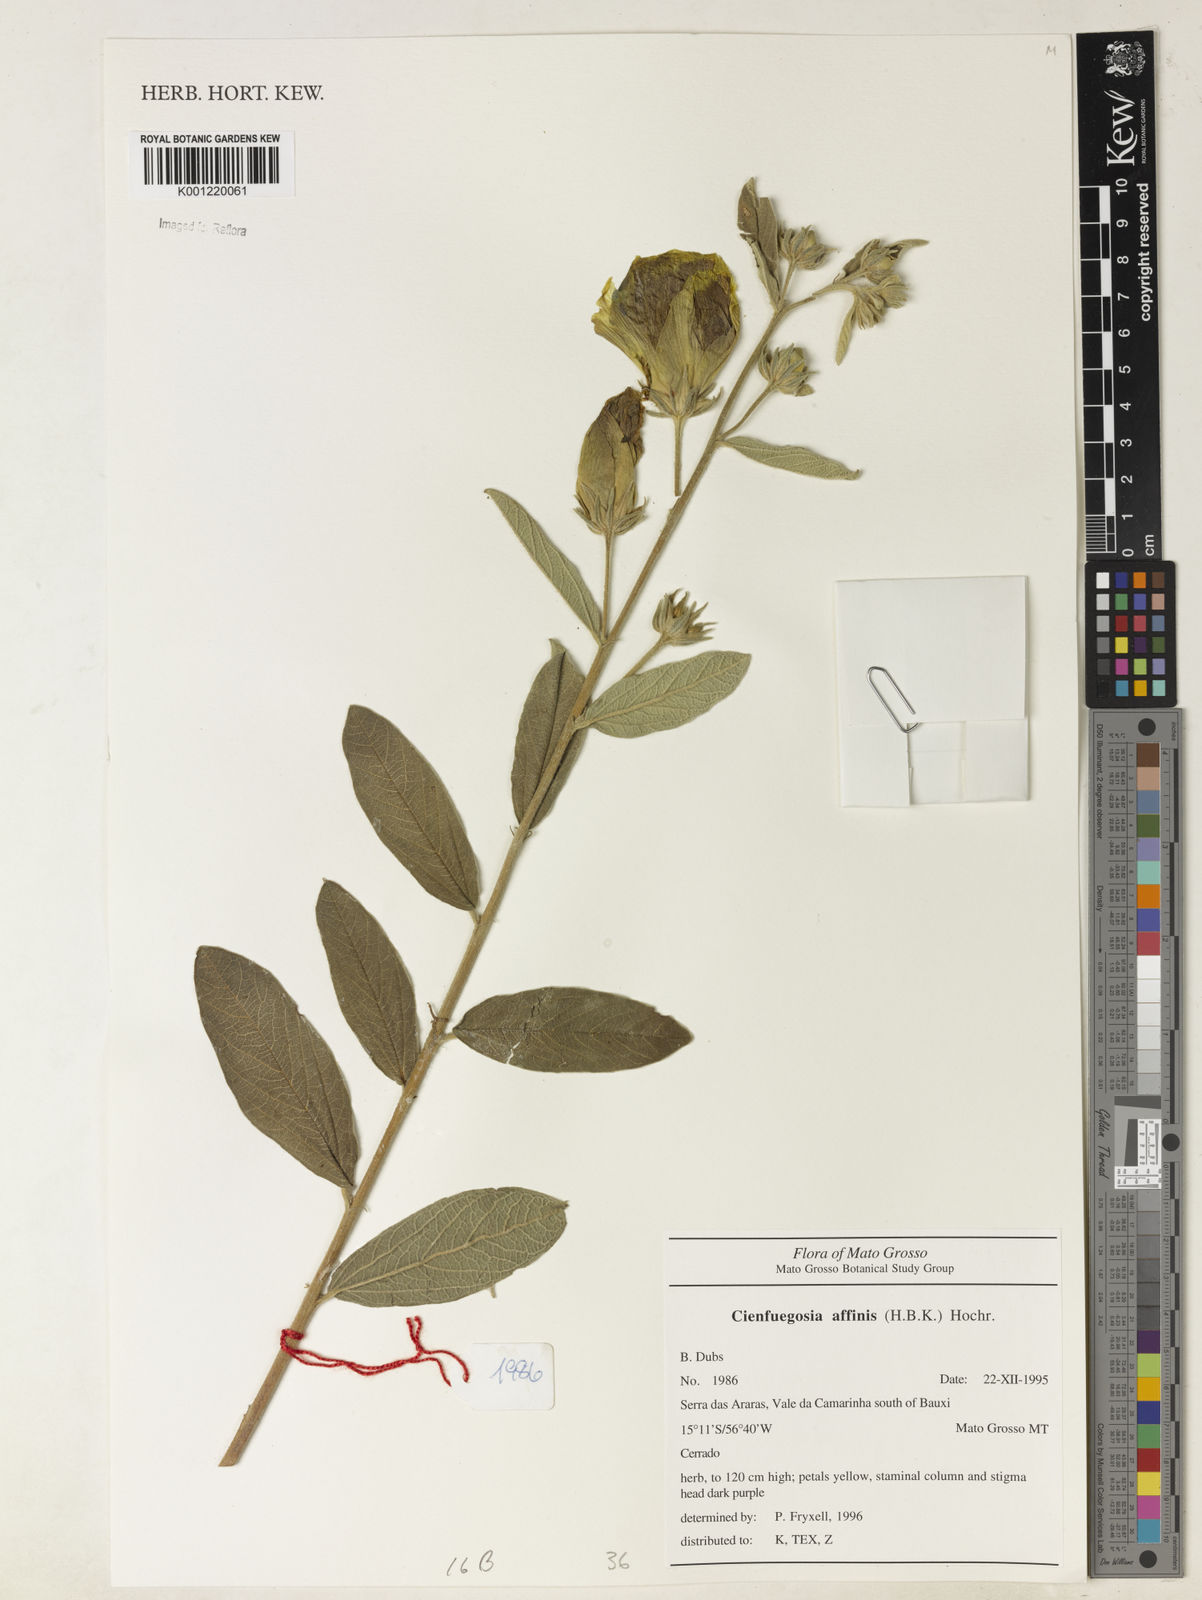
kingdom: Plantae
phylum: Tracheophyta
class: Magnoliopsida
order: Malvales
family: Malvaceae
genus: Cienfuegosia
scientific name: Cienfuegosia affinis
